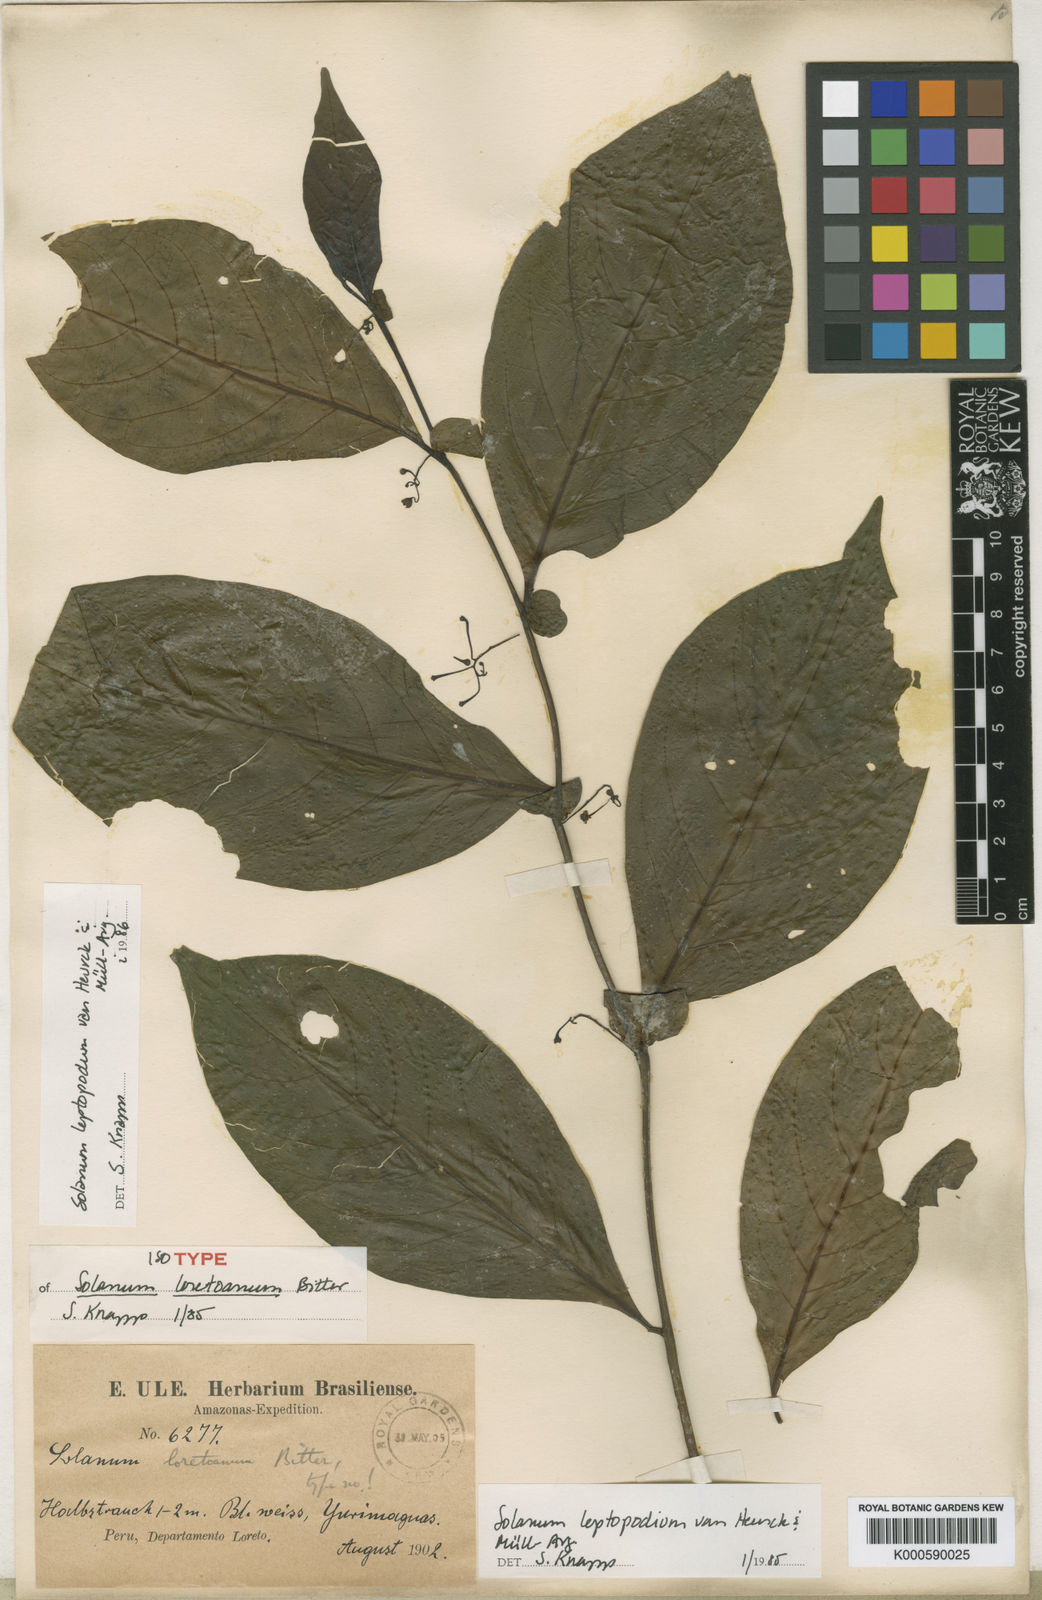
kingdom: Plantae
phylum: Tracheophyta
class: Magnoliopsida
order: Solanales
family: Solanaceae
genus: Solanum
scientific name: Solanum
